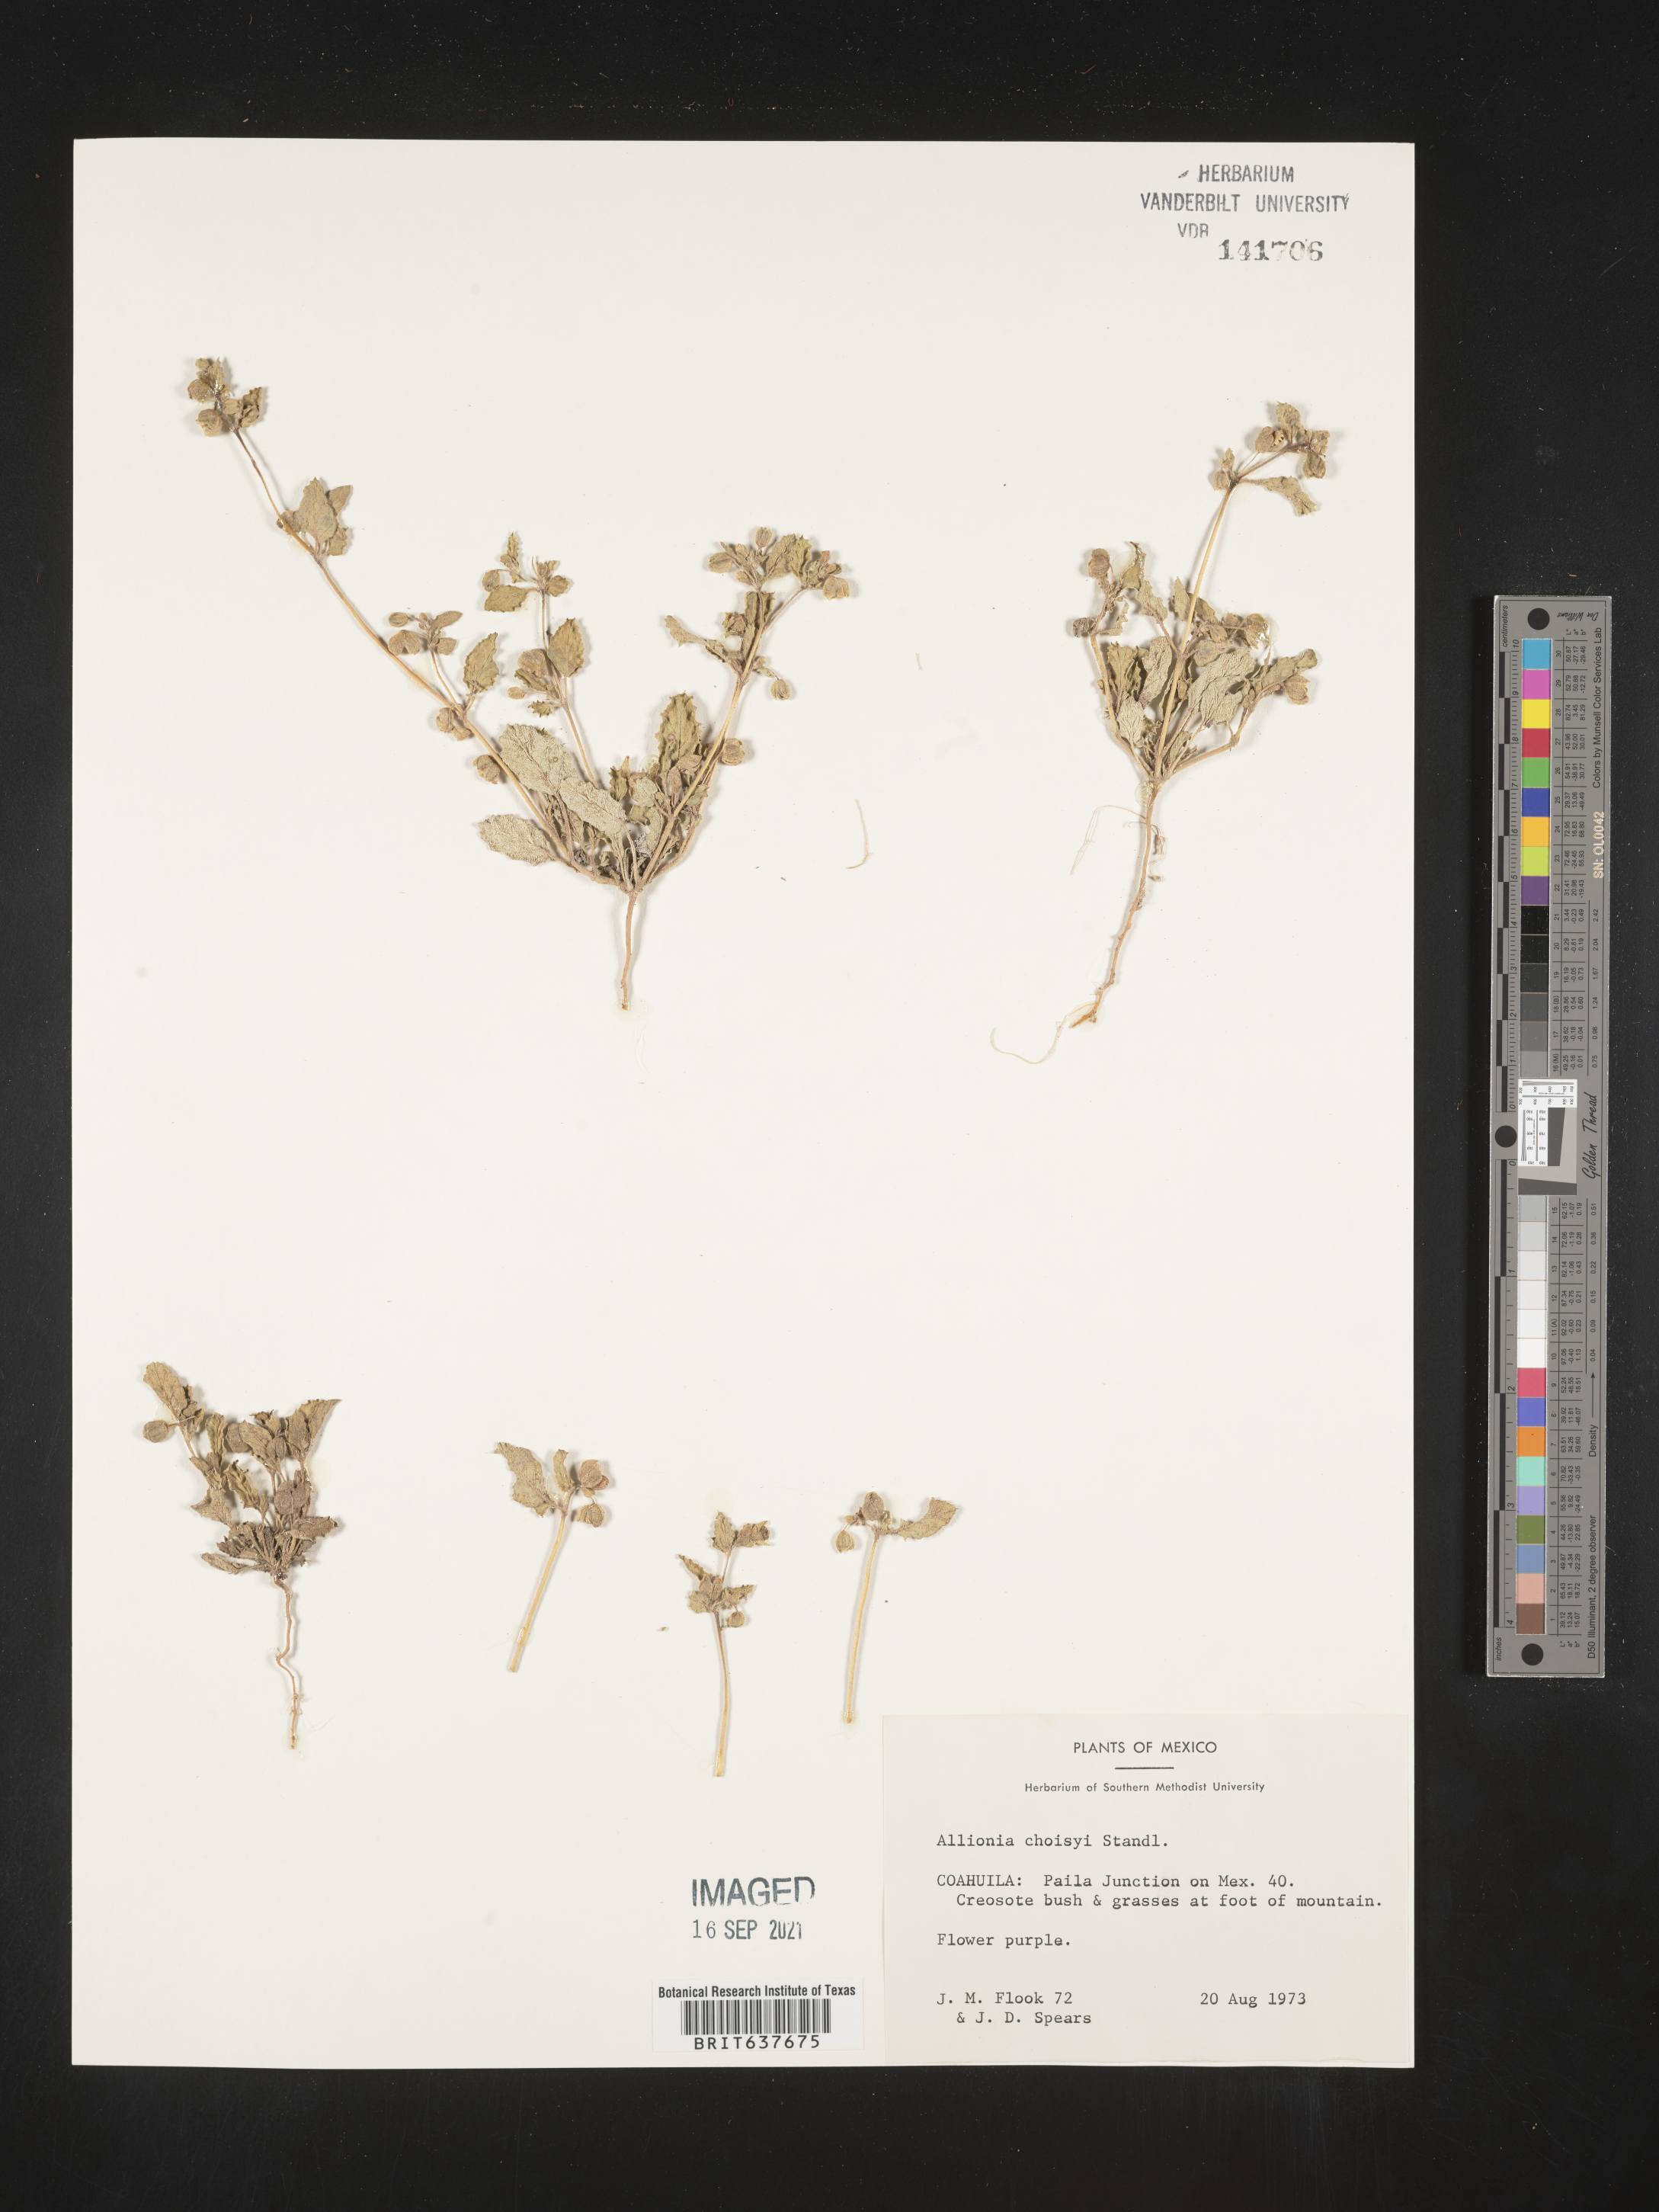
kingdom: Plantae
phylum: Tracheophyta
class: Magnoliopsida
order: Caryophyllales
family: Nyctaginaceae
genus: Allionia
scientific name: Allionia
